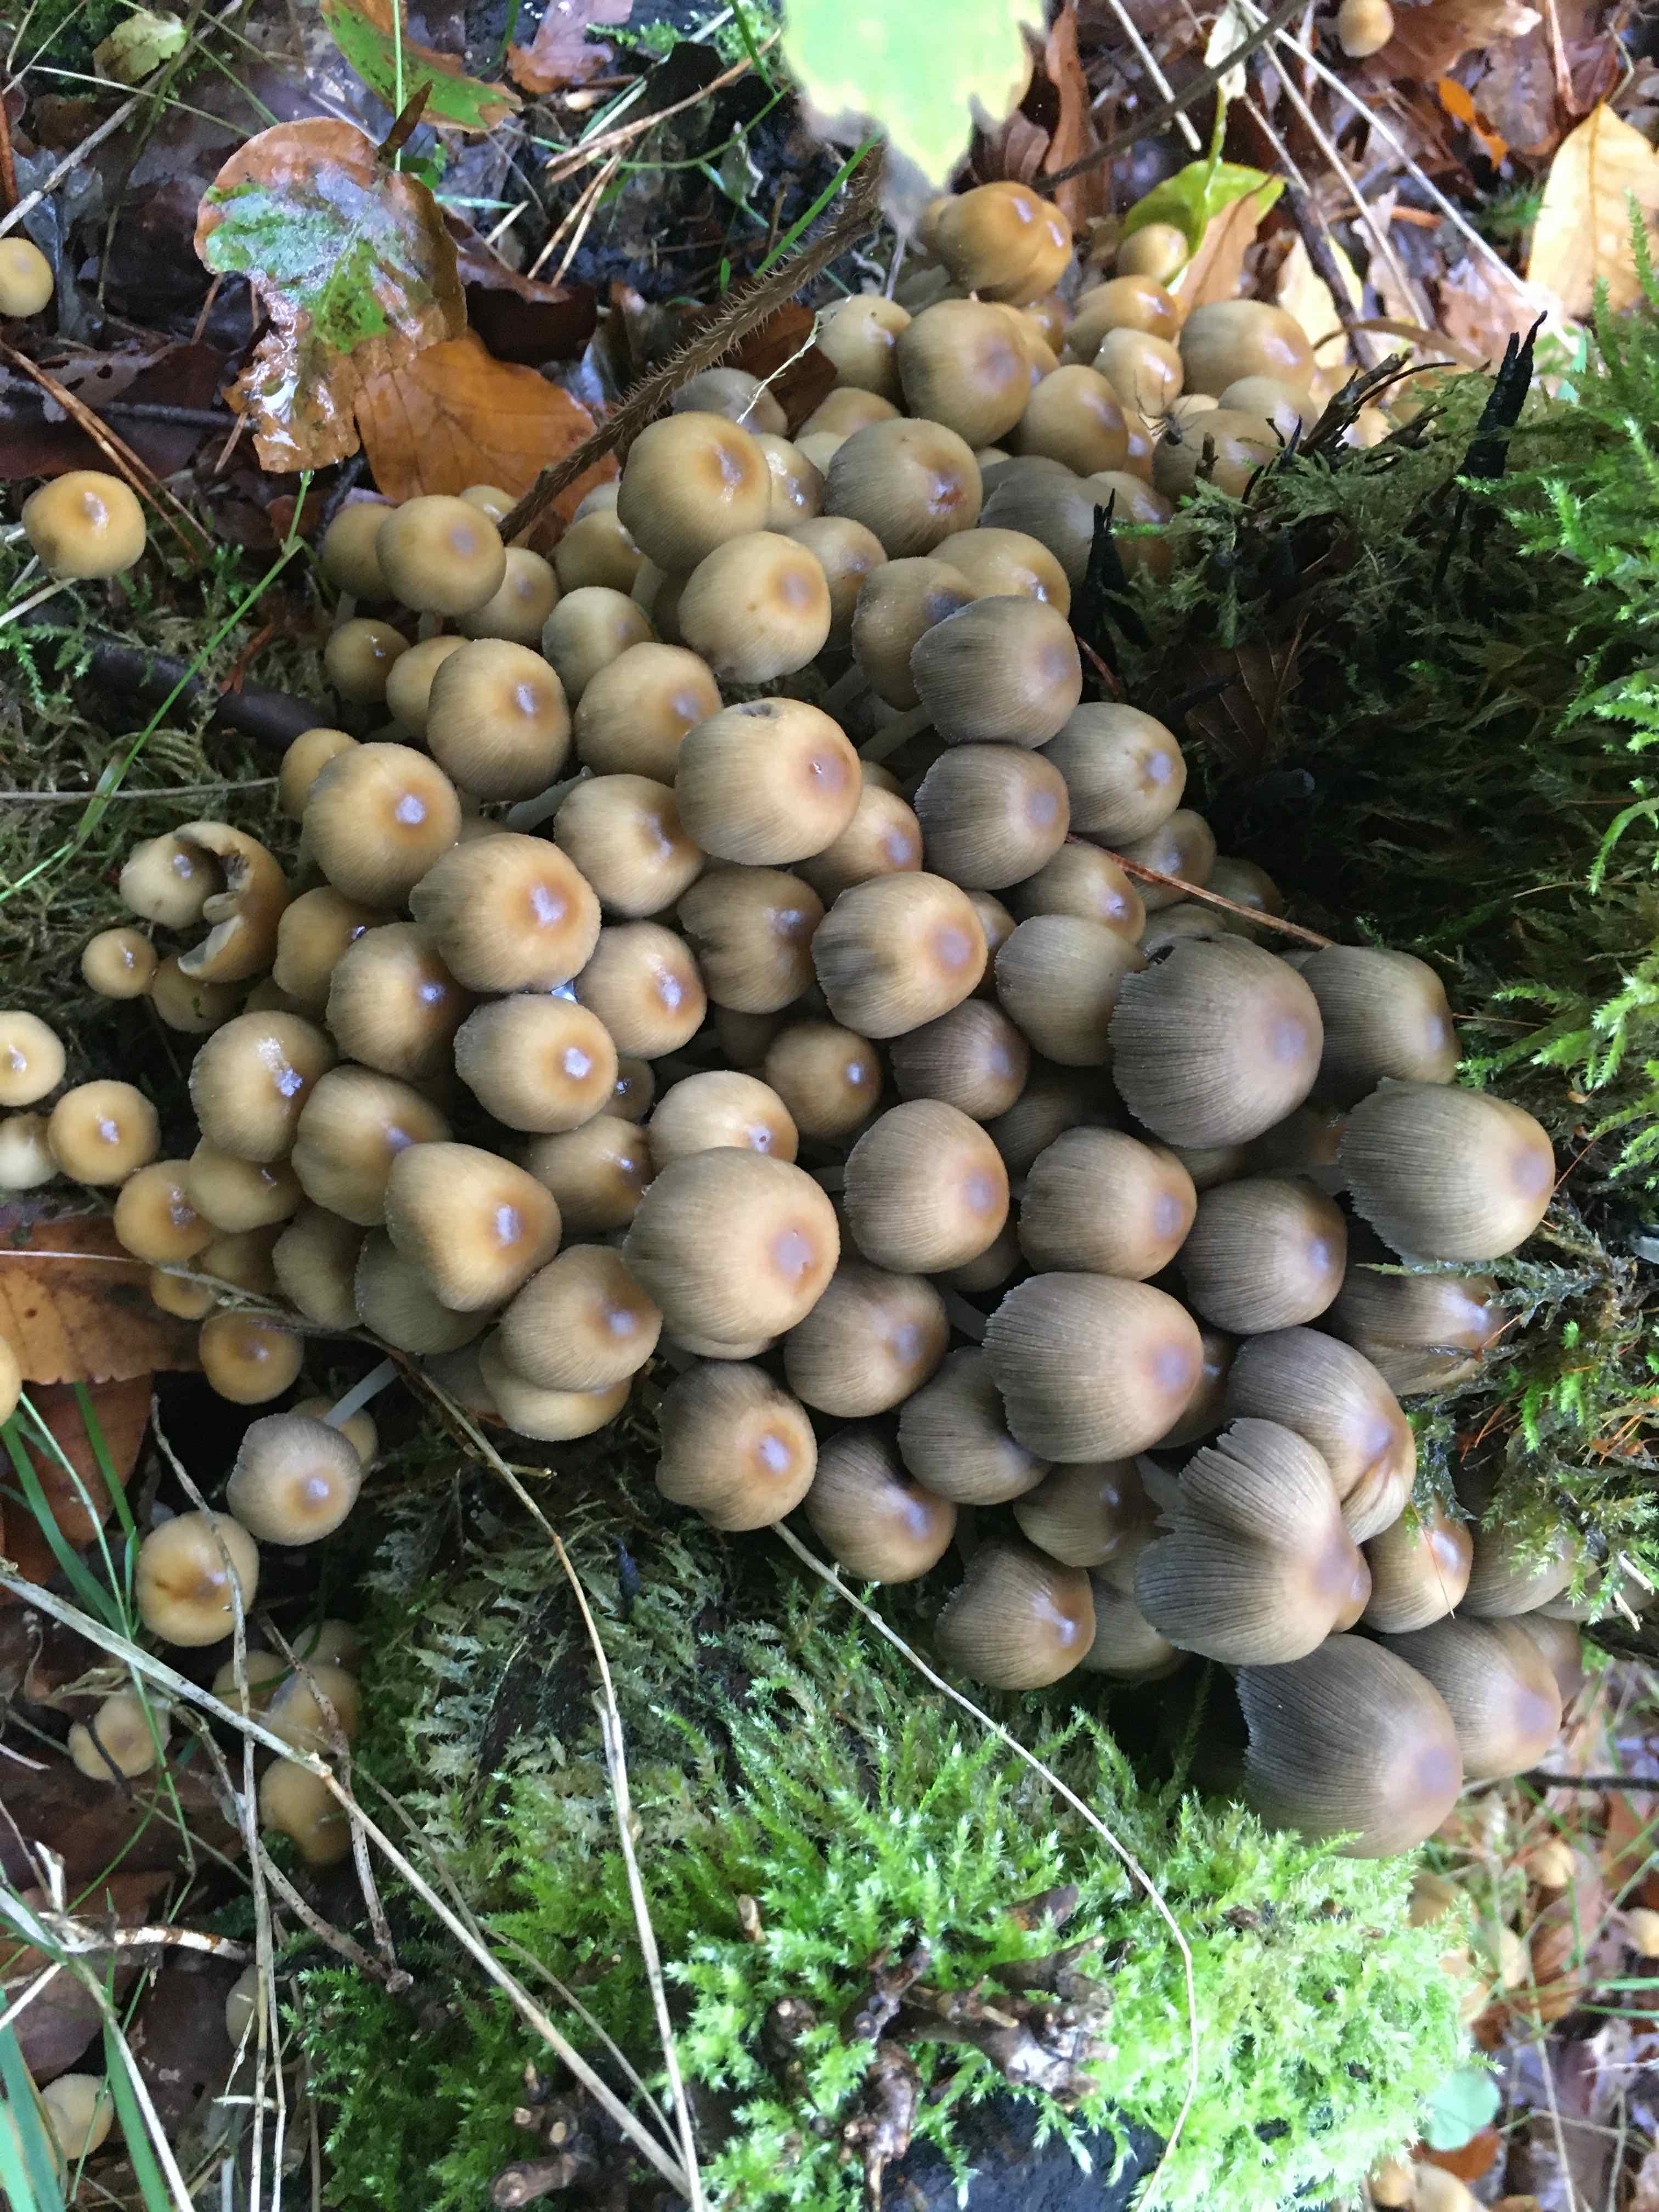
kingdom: Fungi
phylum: Basidiomycota
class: Agaricomycetes
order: Agaricales
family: Psathyrellaceae
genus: Coprinellus
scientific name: Coprinellus
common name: blækhat
